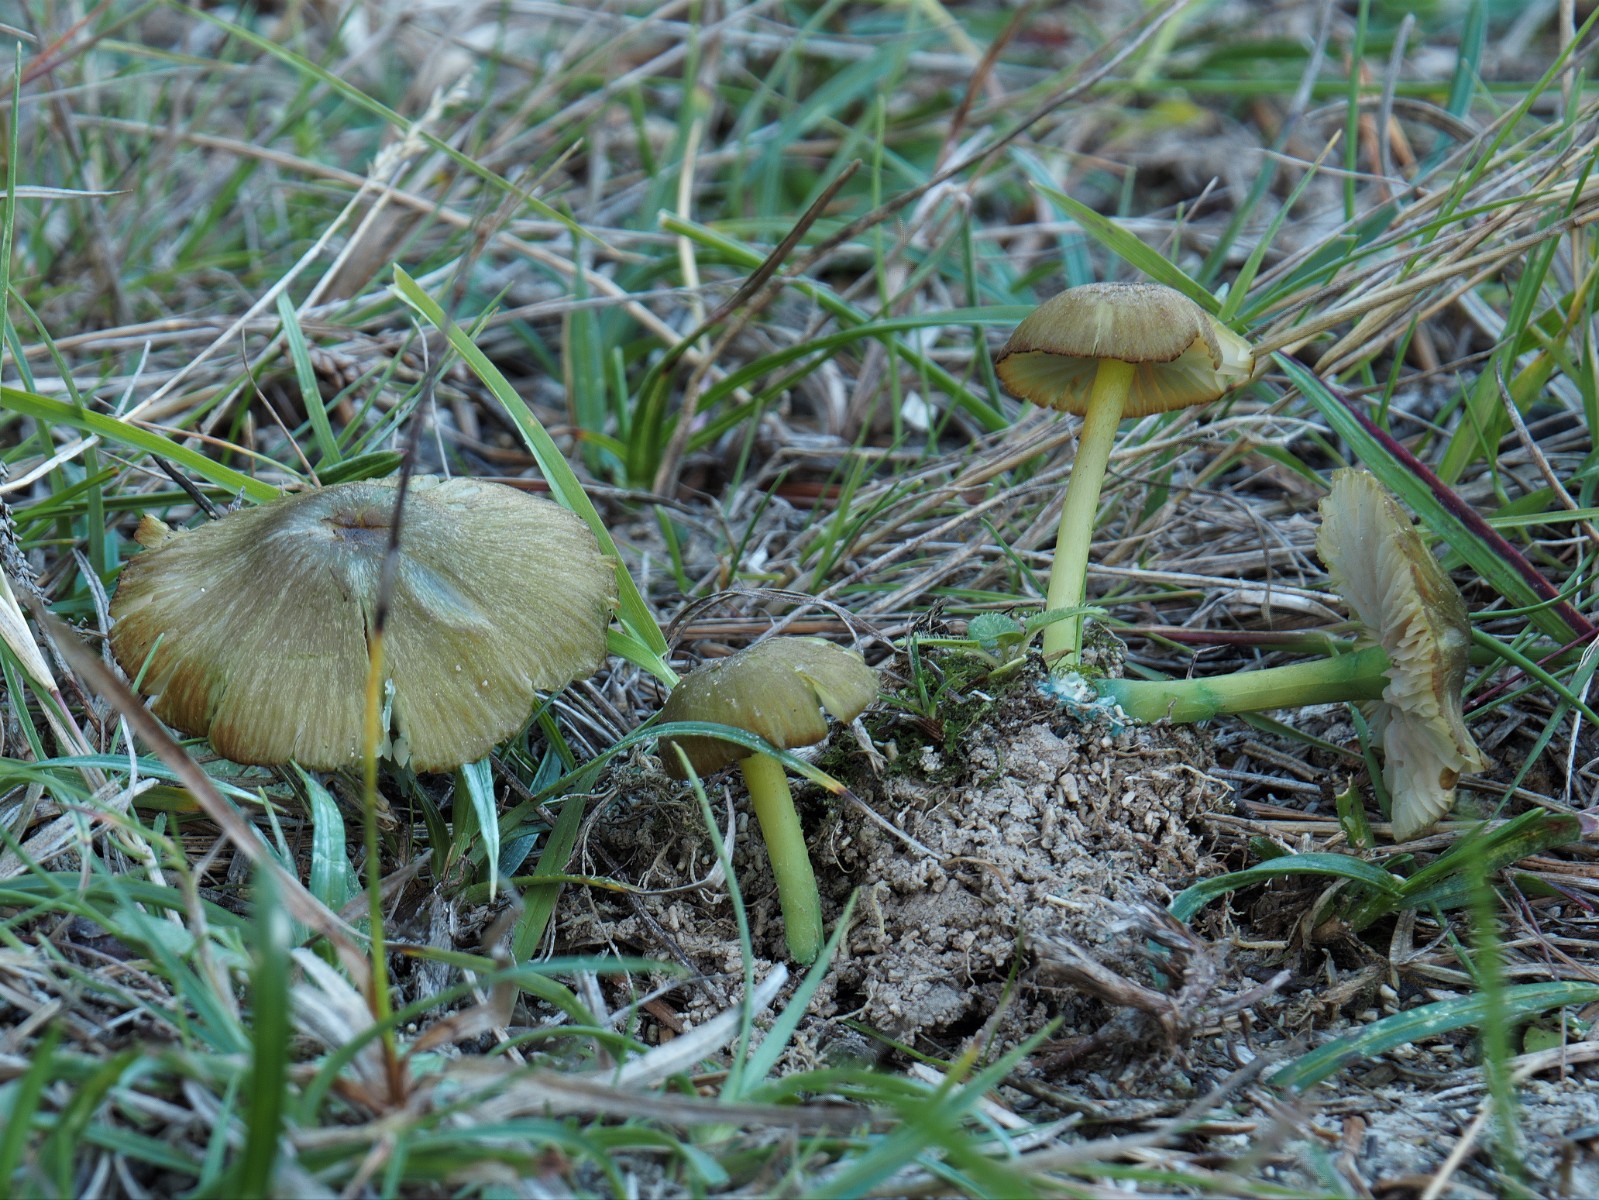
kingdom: Fungi
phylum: Basidiomycota
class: Agaricomycetes
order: Agaricales
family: Entolomataceae
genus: Entoloma
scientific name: Entoloma incanum
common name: grøngul rødblad
